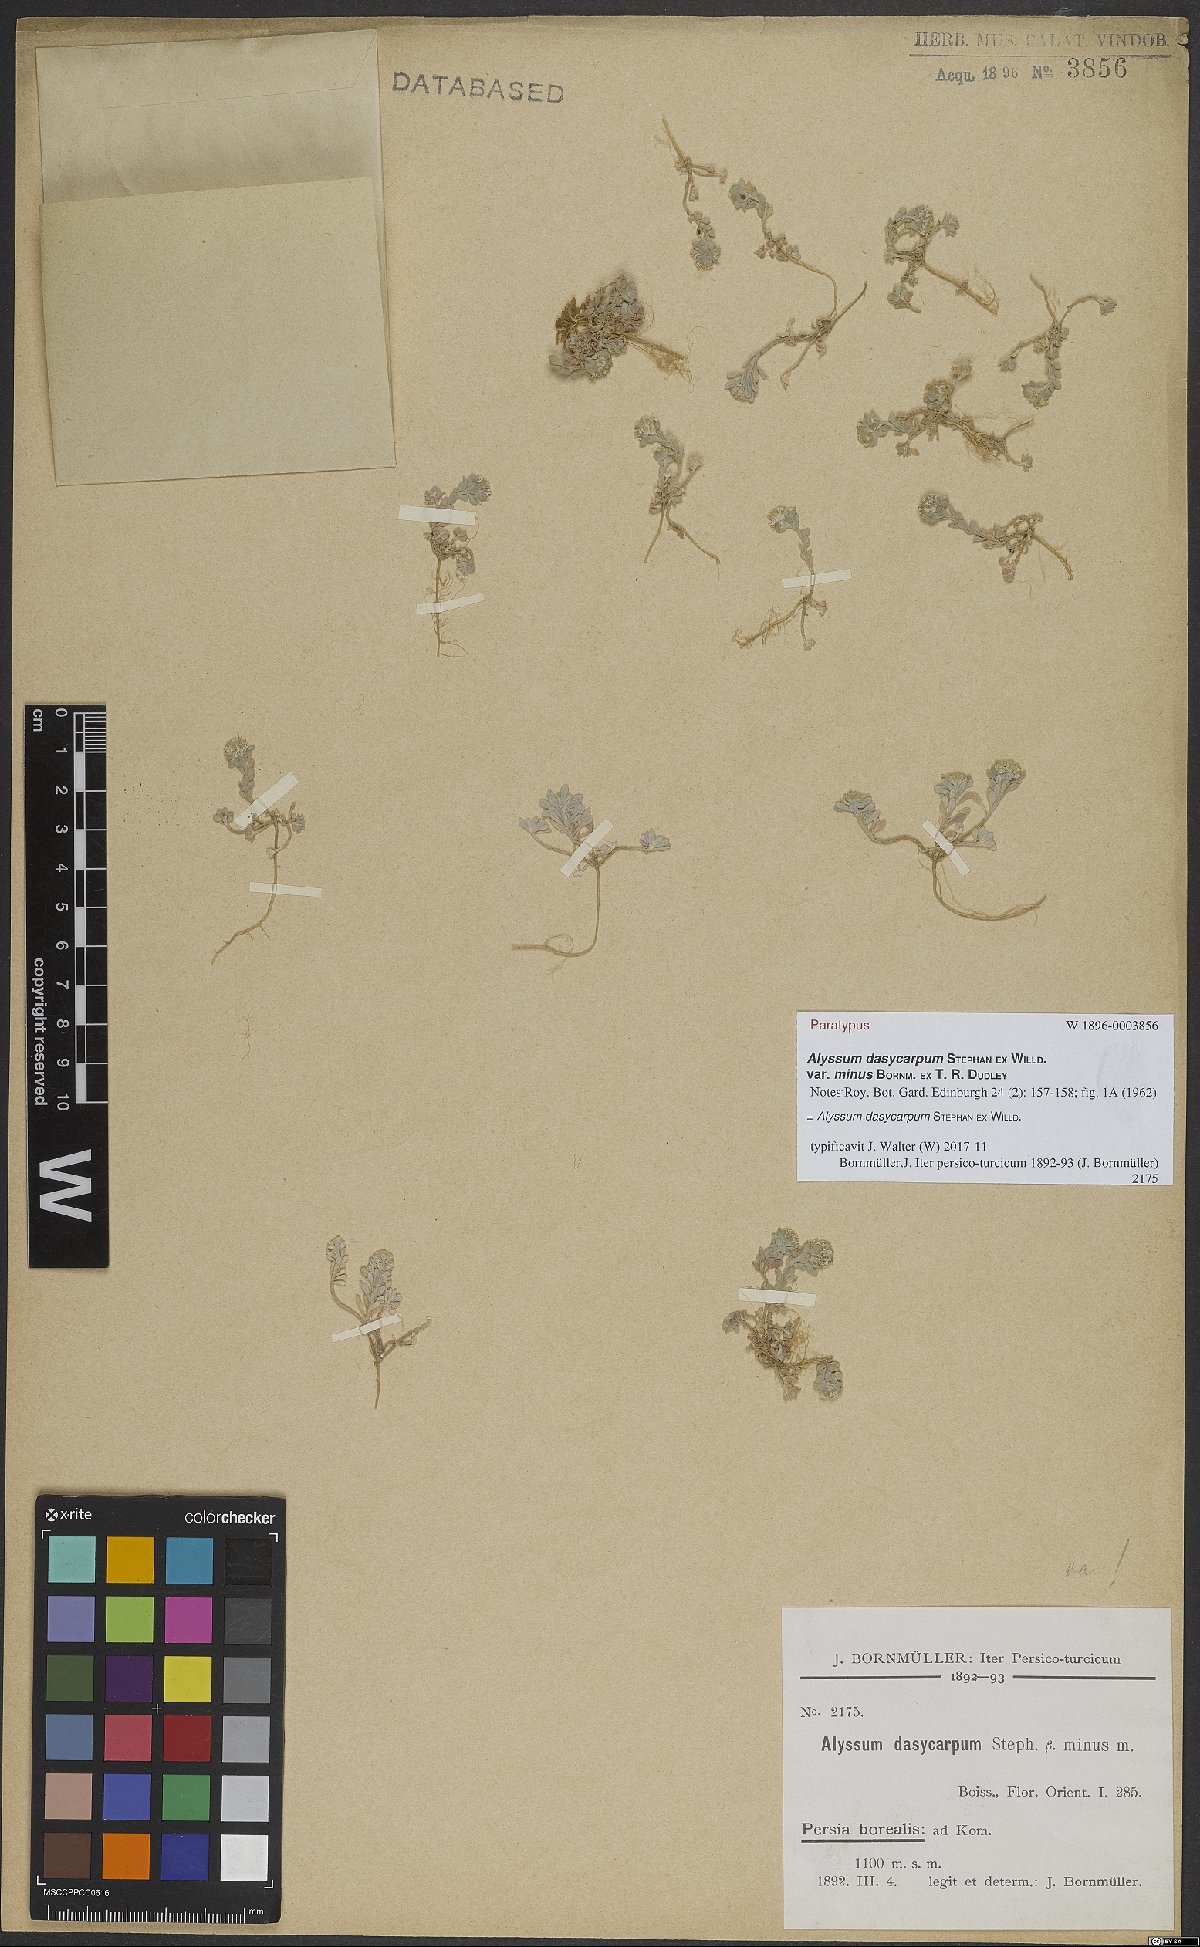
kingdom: Plantae
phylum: Tracheophyta
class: Magnoliopsida
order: Brassicales
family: Brassicaceae
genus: Alyssum
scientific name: Alyssum dasycarpum
